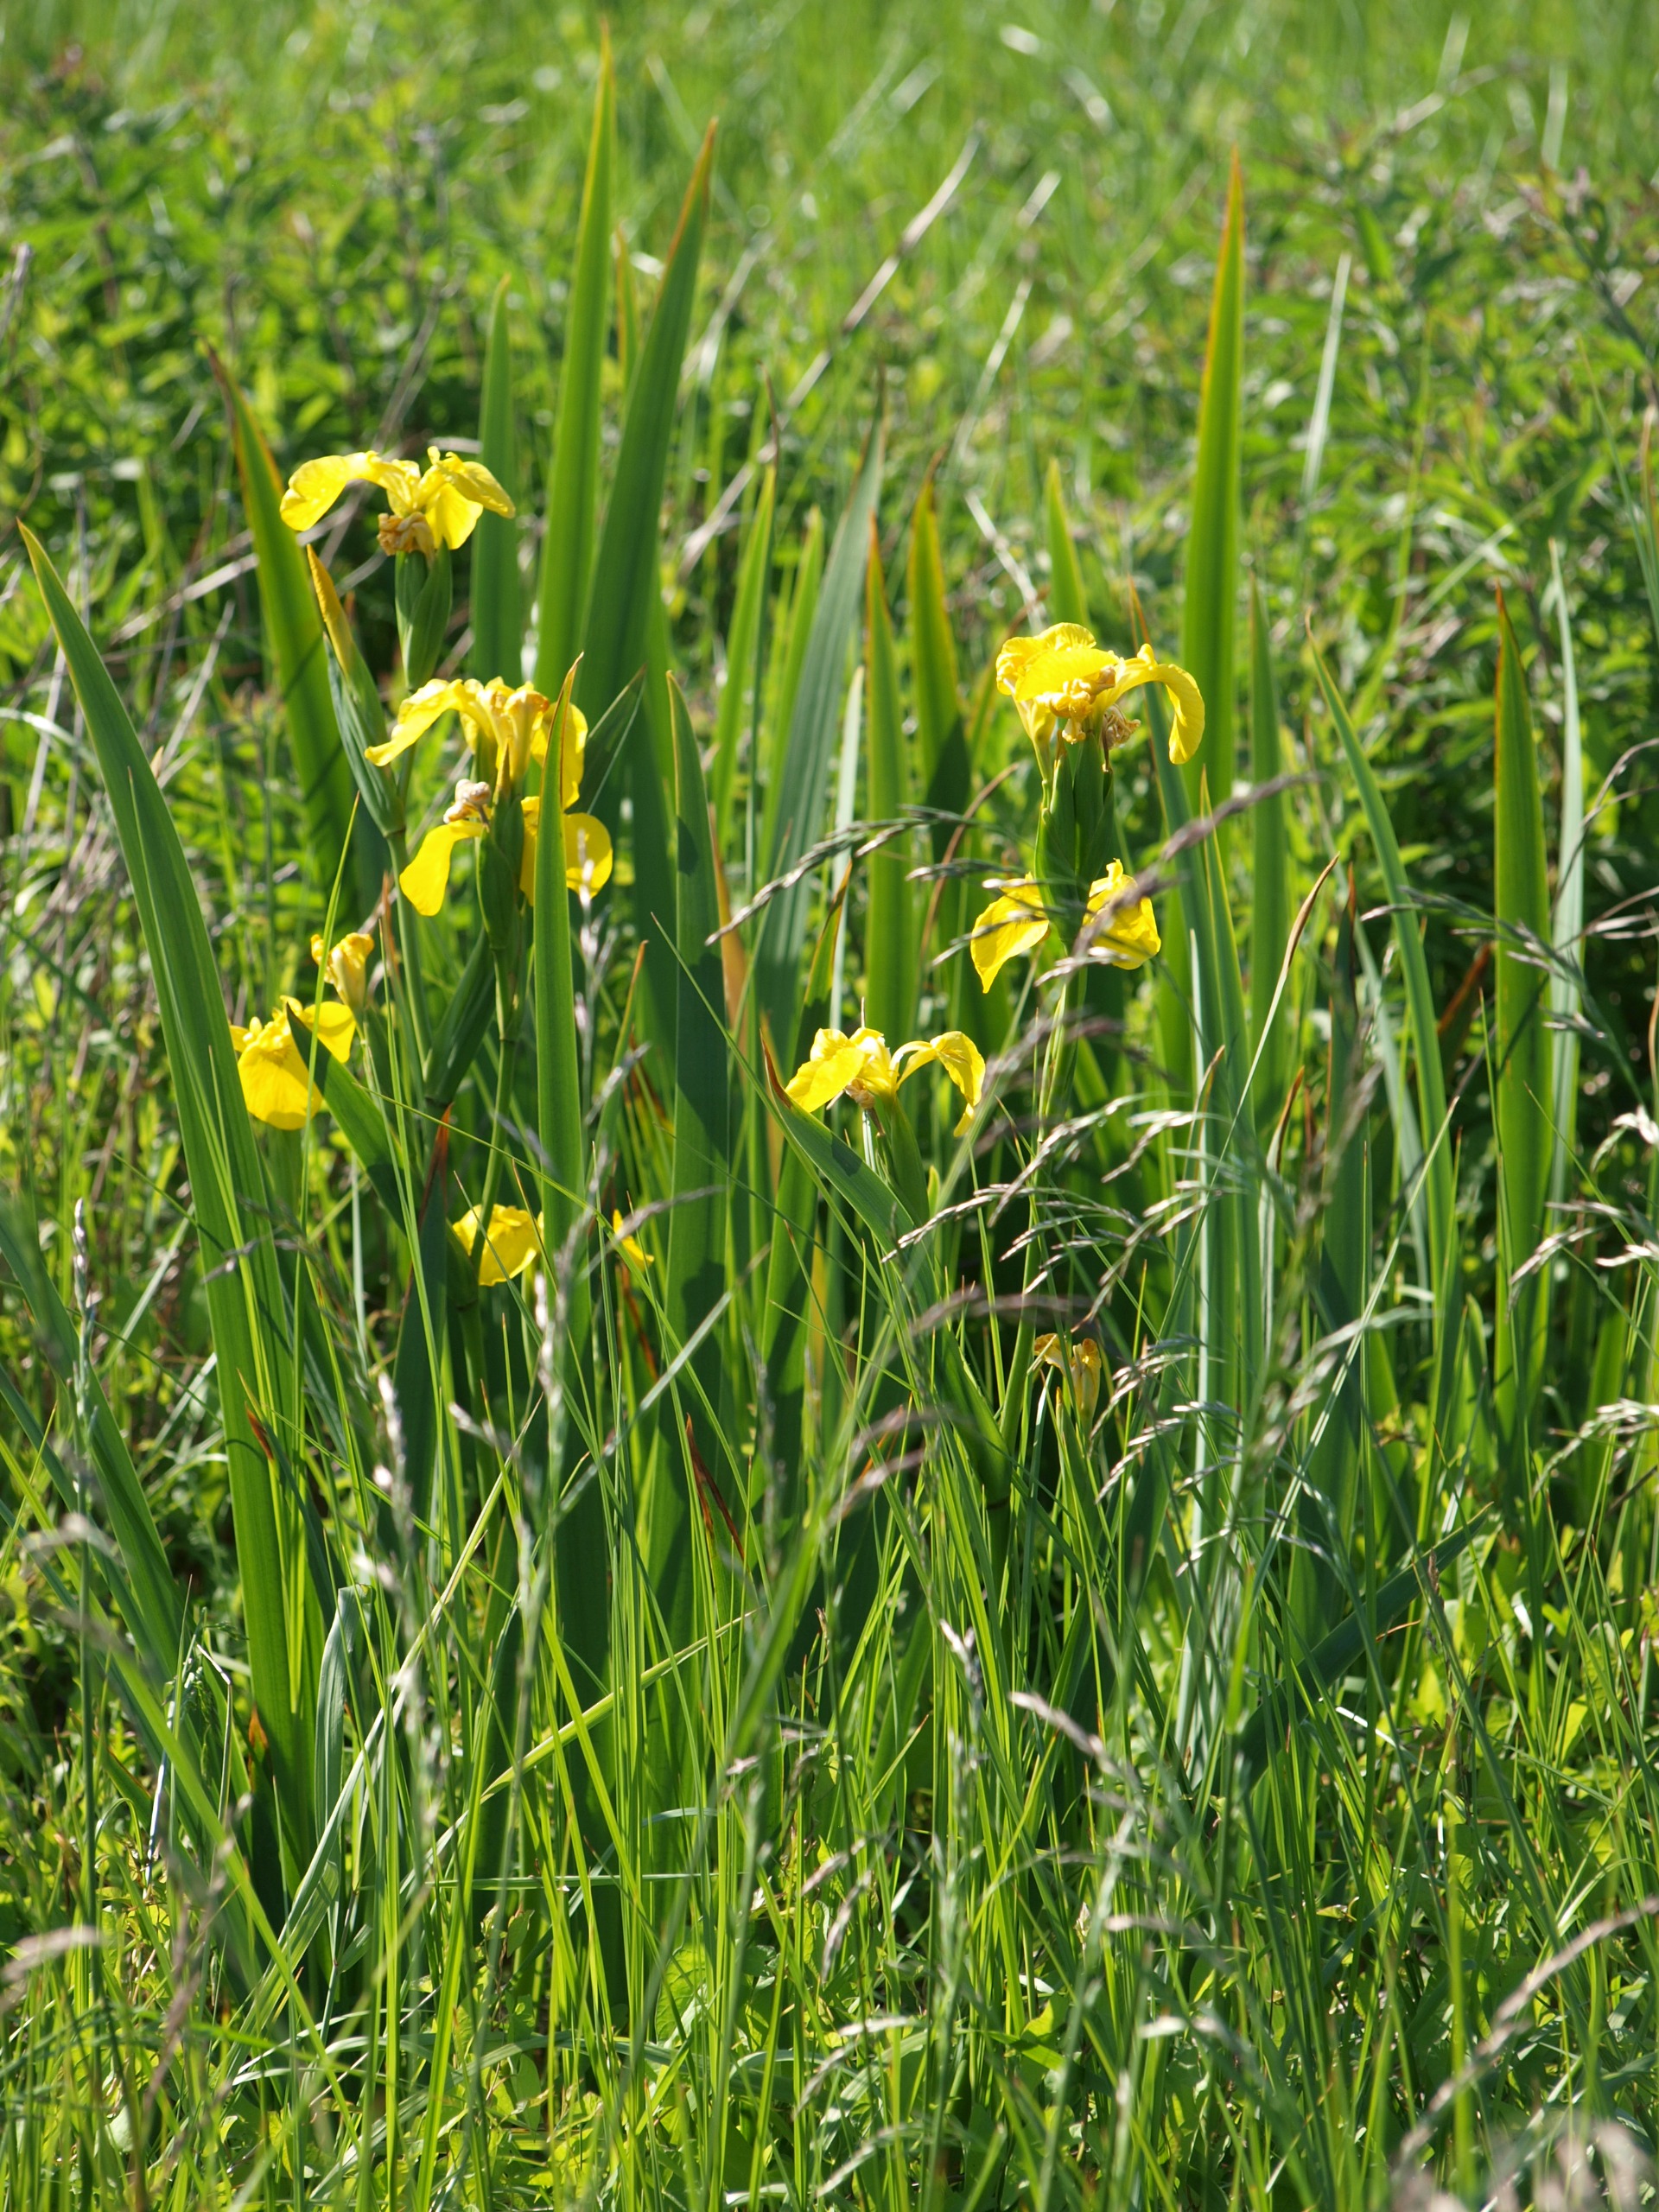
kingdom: Plantae
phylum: Tracheophyta
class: Liliopsida
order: Asparagales
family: Iridaceae
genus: Iris
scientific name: Iris pseudacorus
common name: Gul iris
